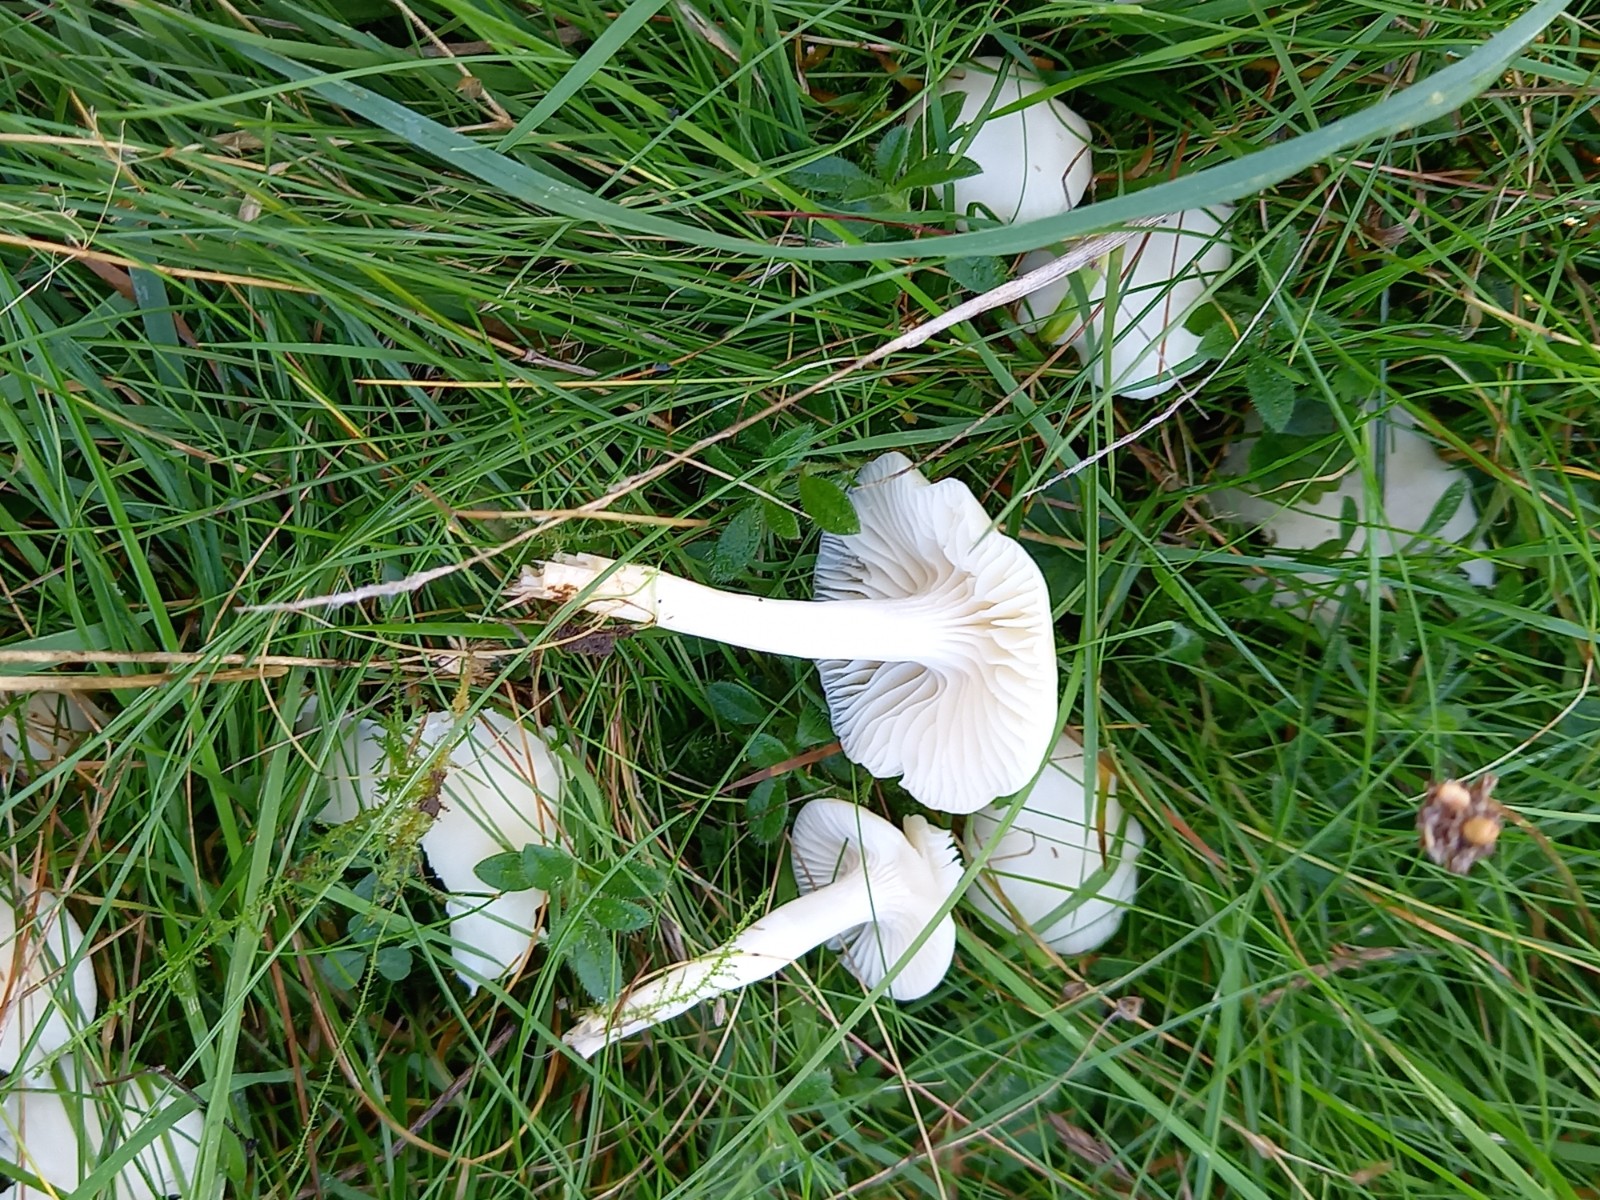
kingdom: Fungi
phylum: Basidiomycota
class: Agaricomycetes
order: Agaricales
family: Hygrophoraceae
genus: Cuphophyllus
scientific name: Cuphophyllus virgineus
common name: snehvid vokshat
